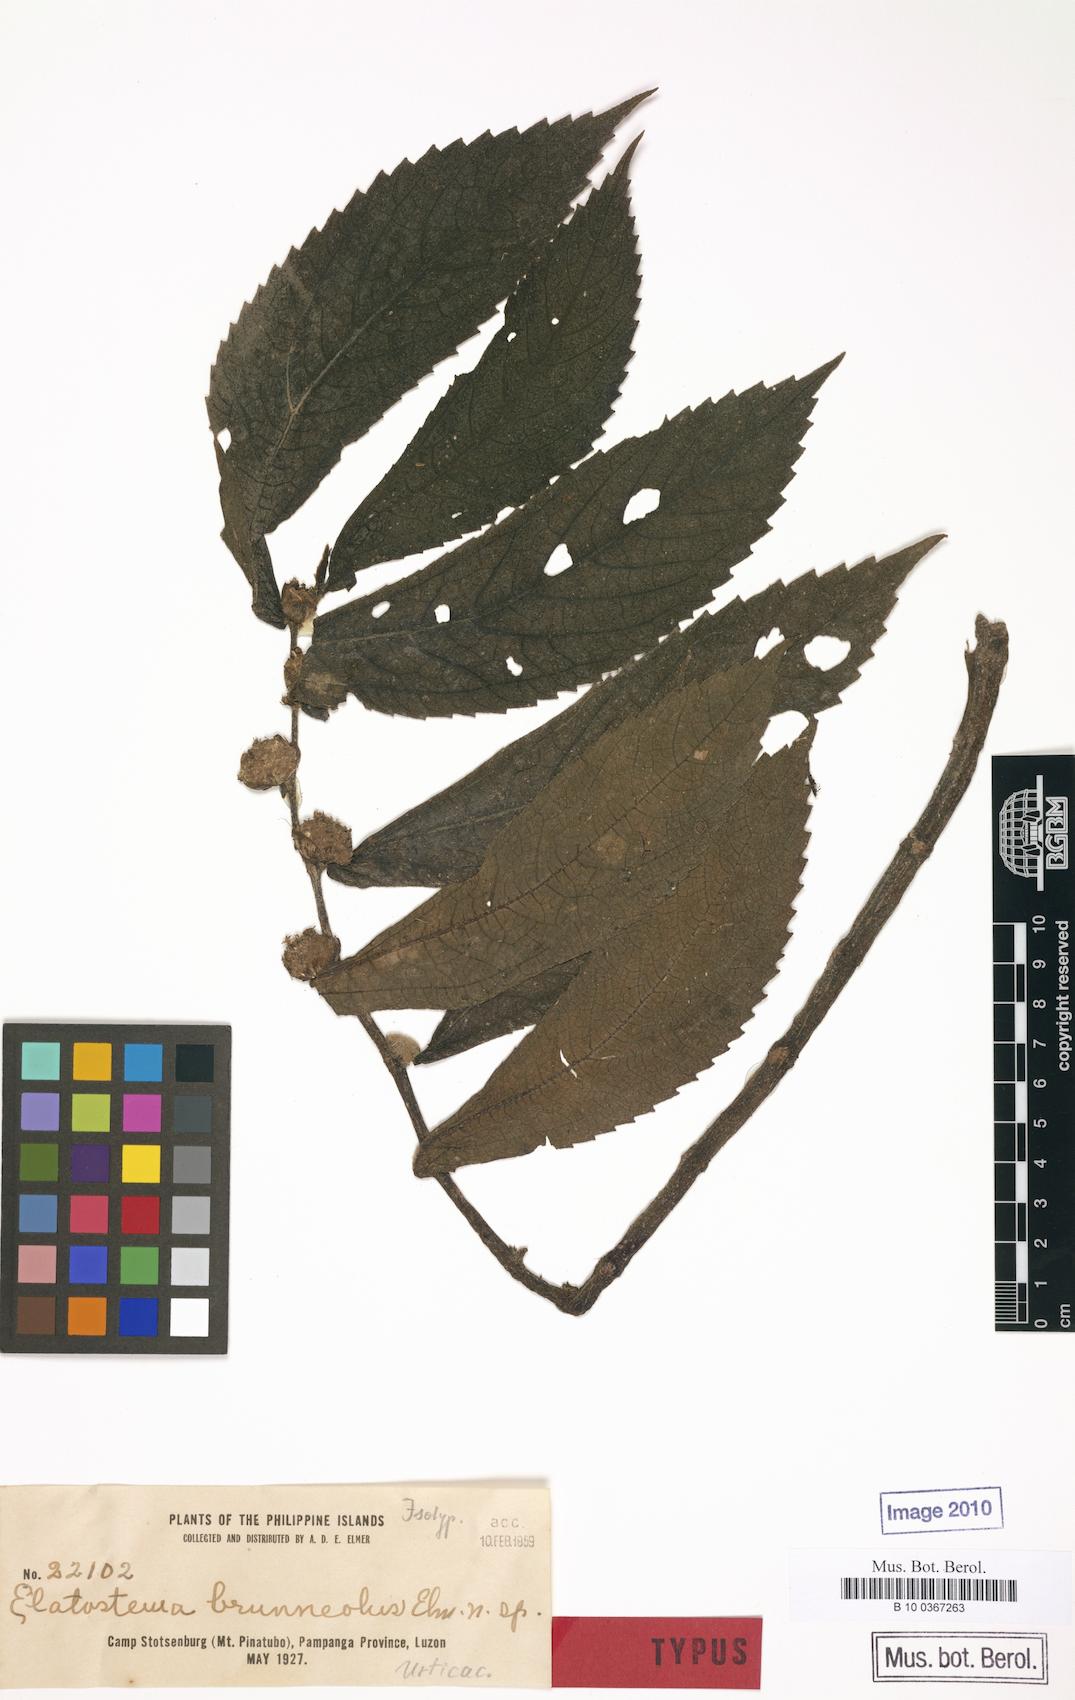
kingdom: Plantae
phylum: Tracheophyta
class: Magnoliopsida
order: Rosales
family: Urticaceae
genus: Elatostema
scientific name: Elatostema brunneolum
